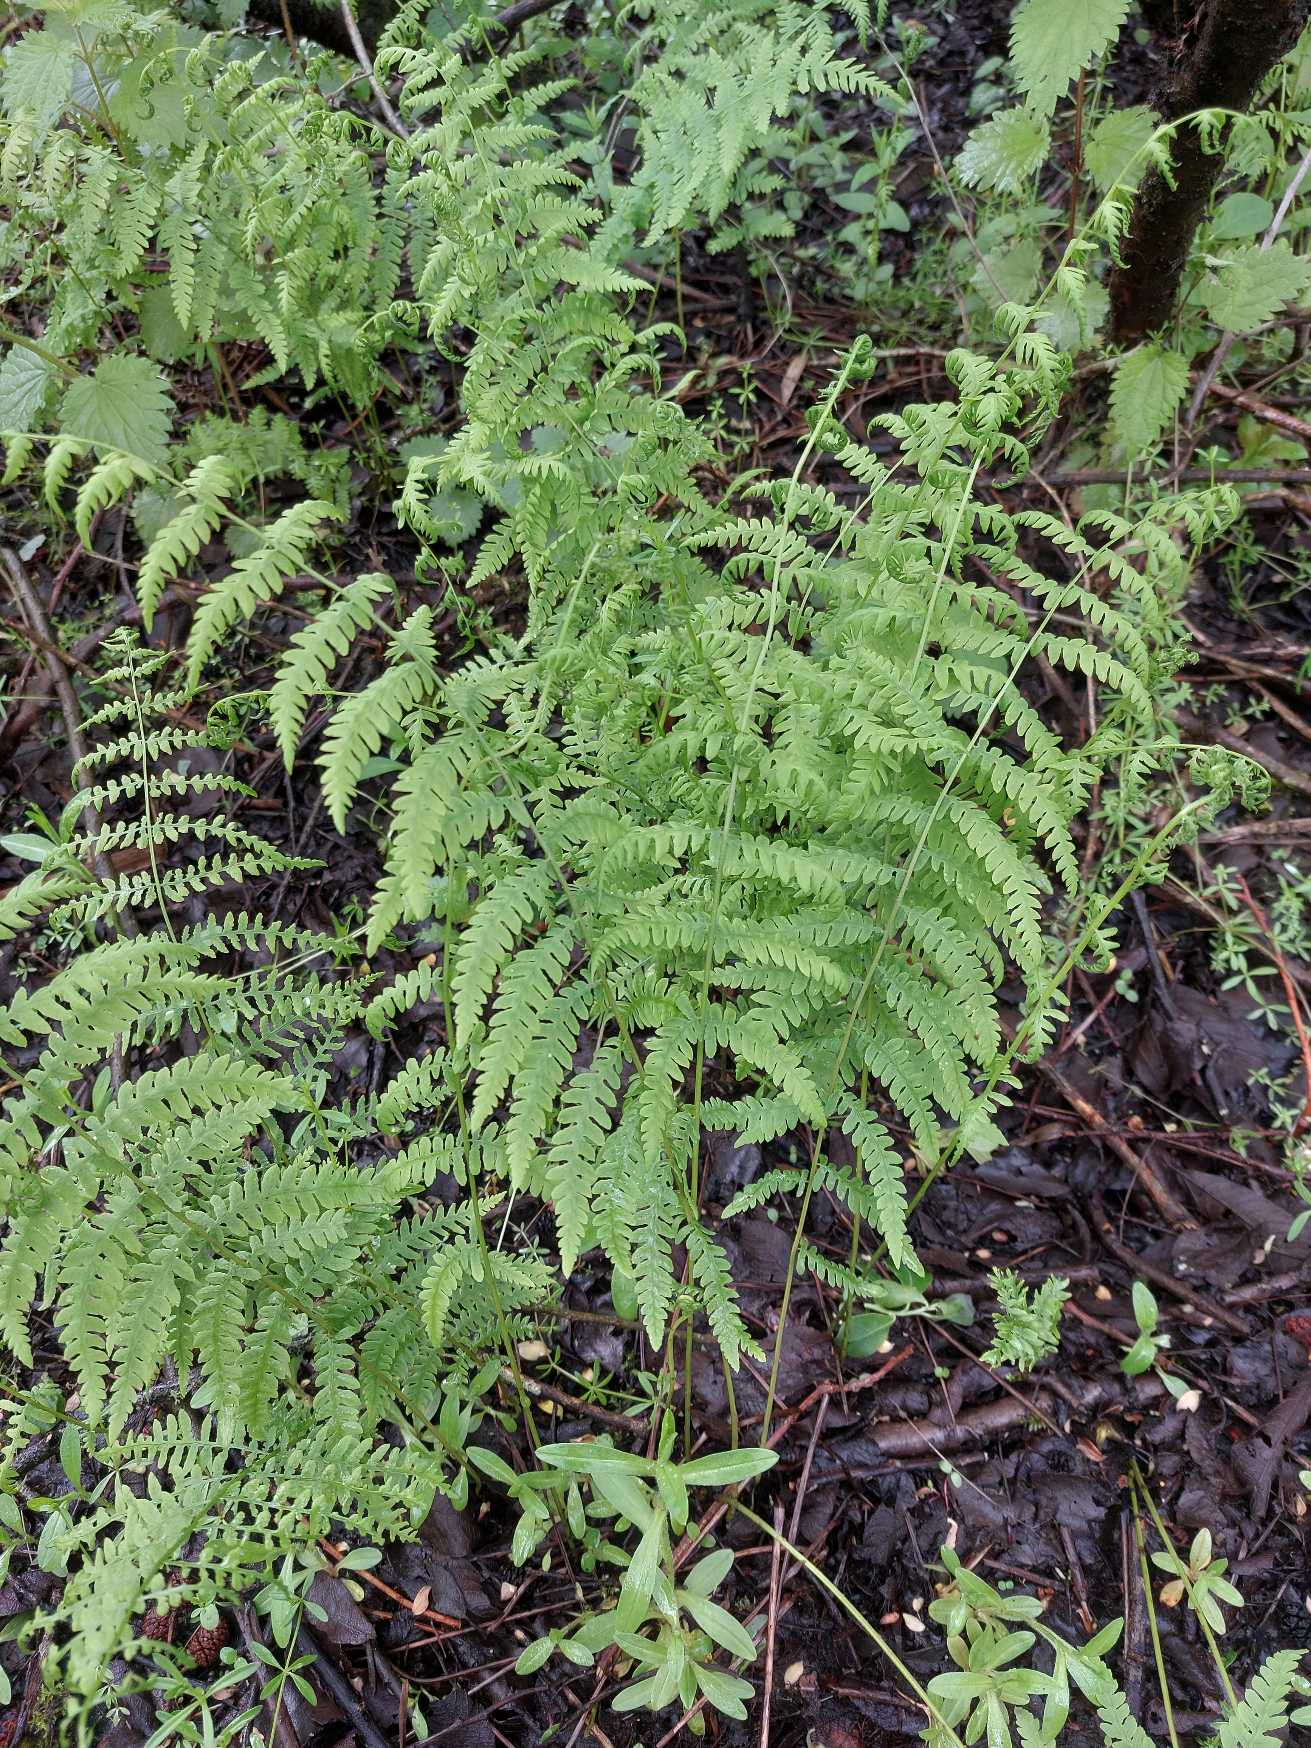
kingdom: Plantae
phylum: Tracheophyta
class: Polypodiopsida
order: Polypodiales
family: Thelypteridaceae
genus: Thelypteris
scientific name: Thelypteris palustris
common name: Kærmangeløv
